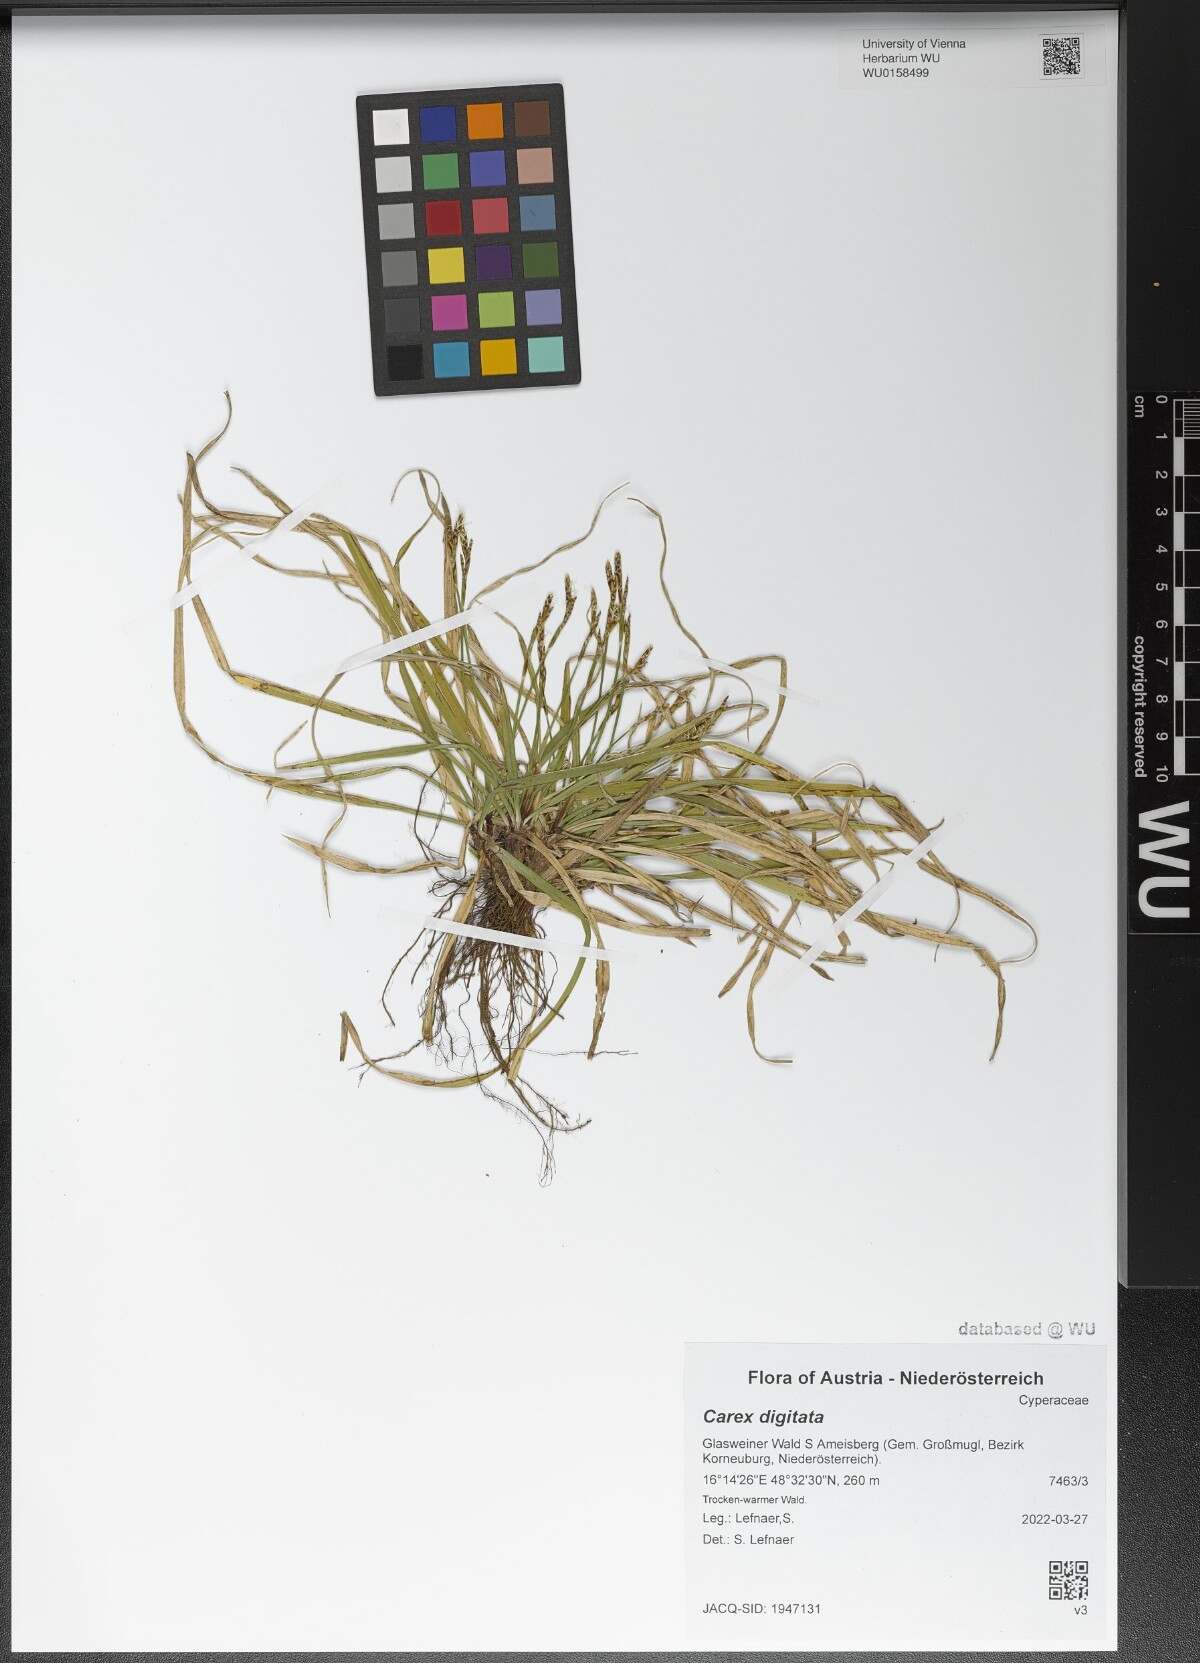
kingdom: Plantae
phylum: Tracheophyta
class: Liliopsida
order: Poales
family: Cyperaceae
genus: Carex
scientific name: Carex digitata
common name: Fingered sedge
